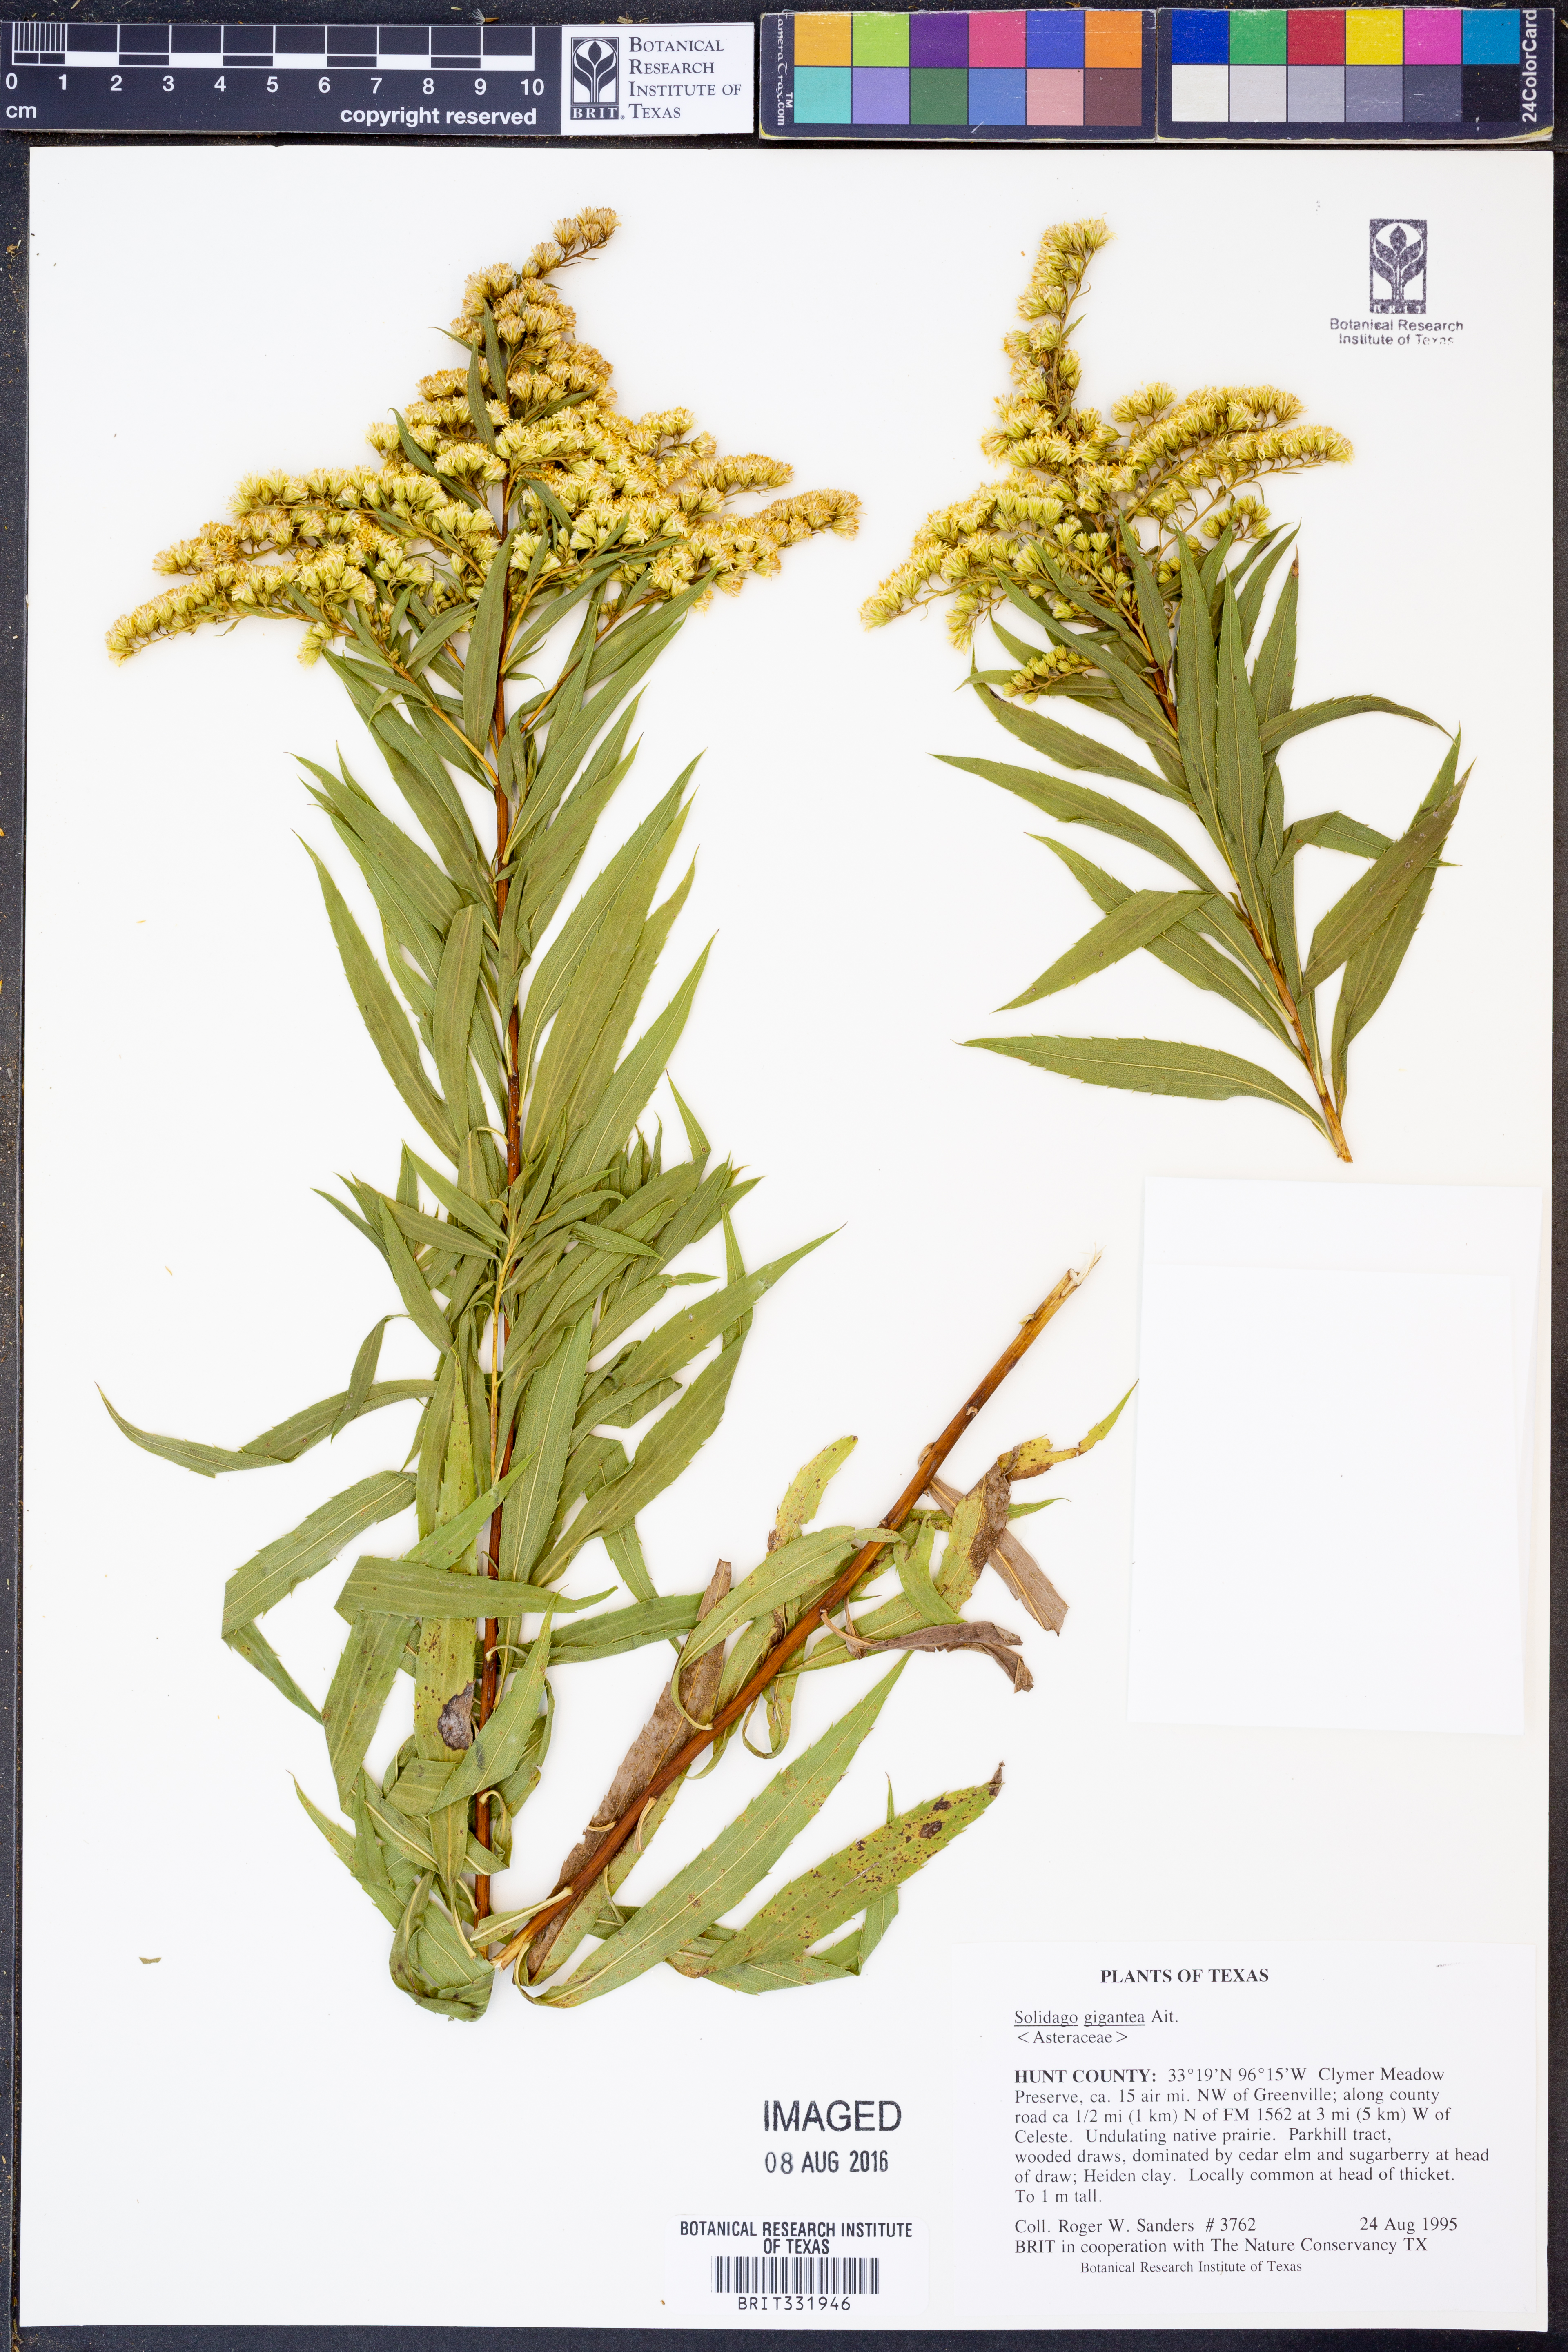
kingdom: Plantae
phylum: Tracheophyta
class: Magnoliopsida
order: Asterales
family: Asteraceae
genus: Solidago
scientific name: Solidago gigantea
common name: Giant goldenrod
